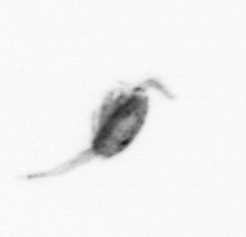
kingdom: Animalia
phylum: Arthropoda
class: Copepoda
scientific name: Copepoda
